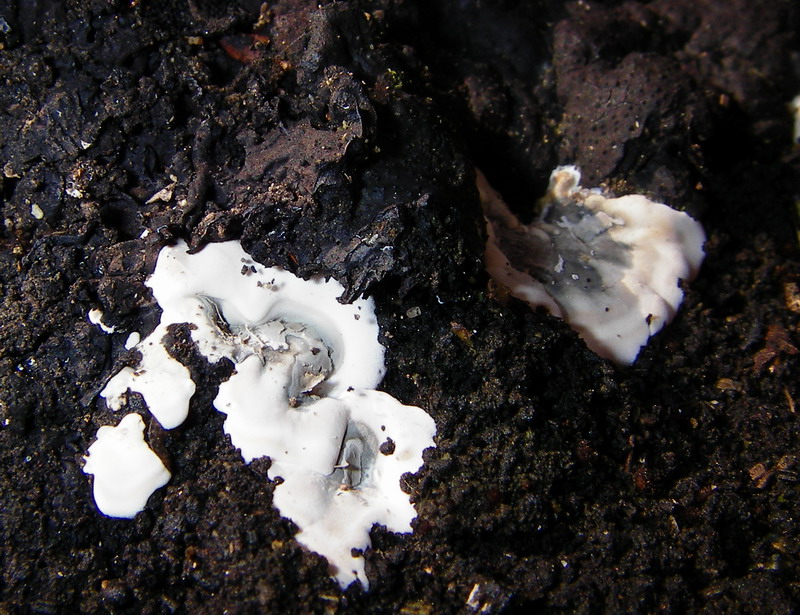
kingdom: Fungi
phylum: Ascomycota
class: Sordariomycetes
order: Xylariales
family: Xylariaceae
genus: Kretzschmaria
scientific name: Kretzschmaria deusta
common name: stor kulsvamp
